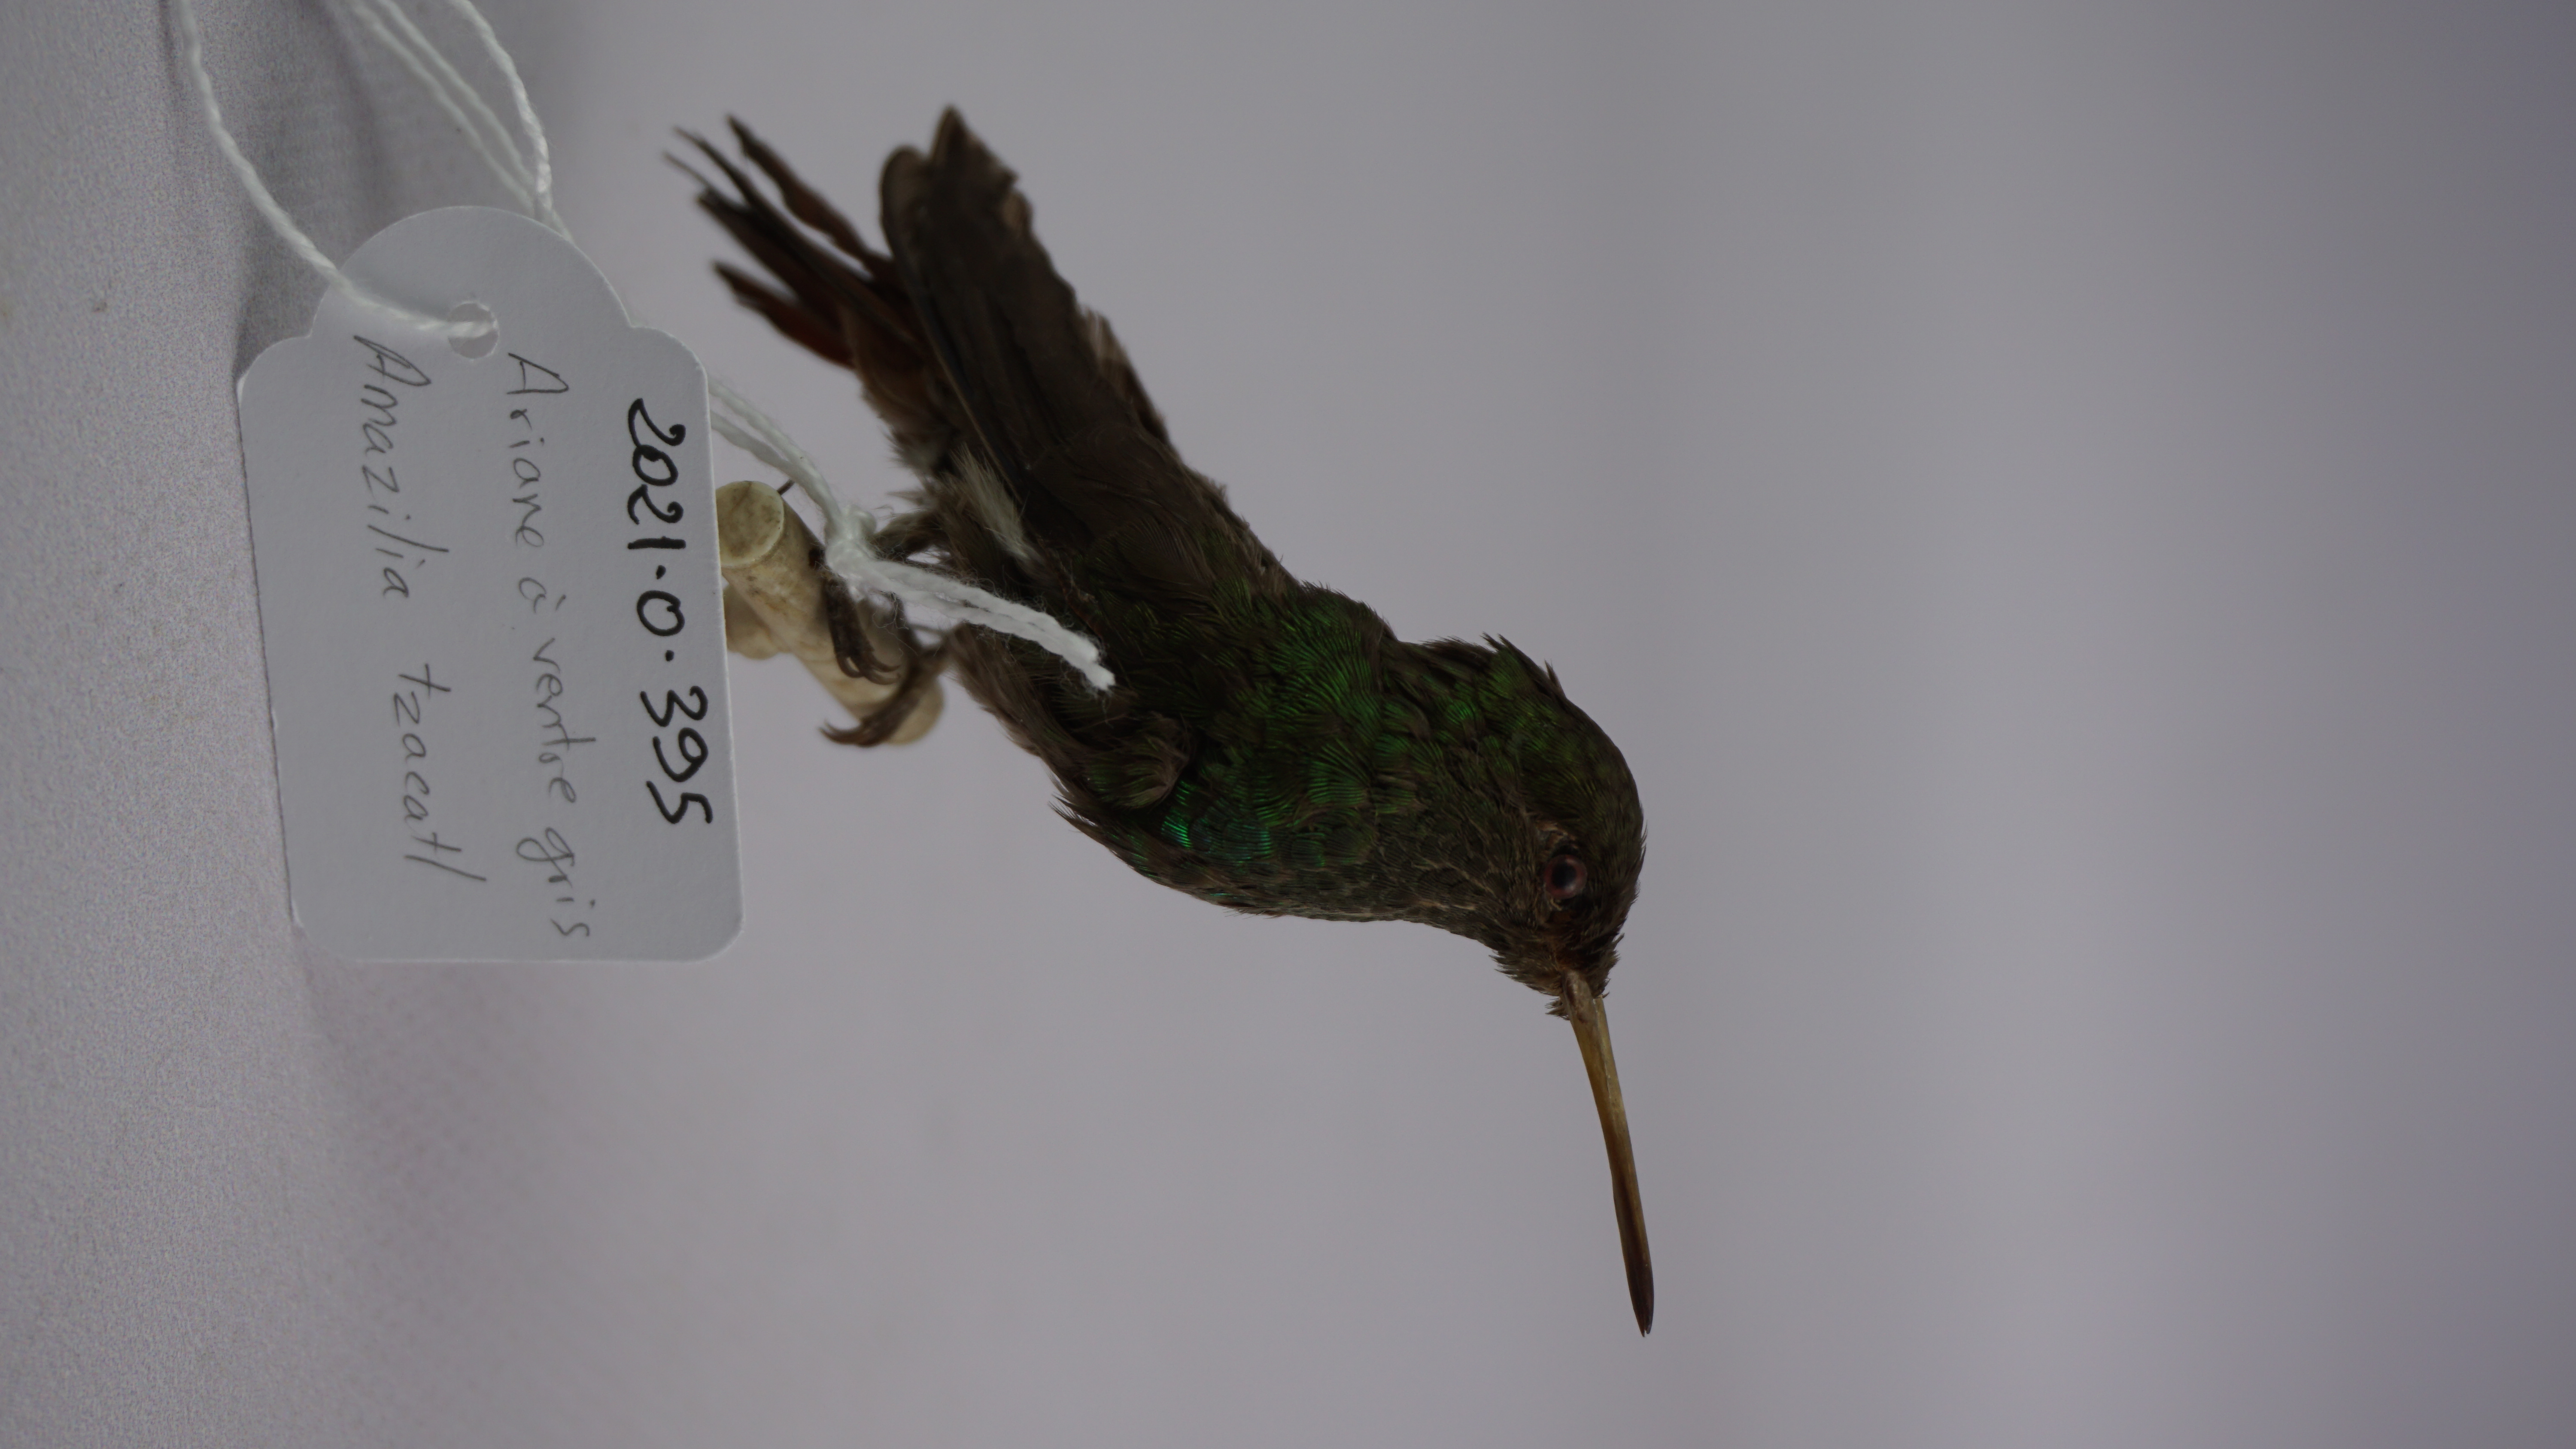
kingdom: Animalia
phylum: Chordata
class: Aves
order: Apodiformes
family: Trochilidae
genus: Amazilia
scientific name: Amazilia tzacatl
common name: Rufous-tailed hummingbird
